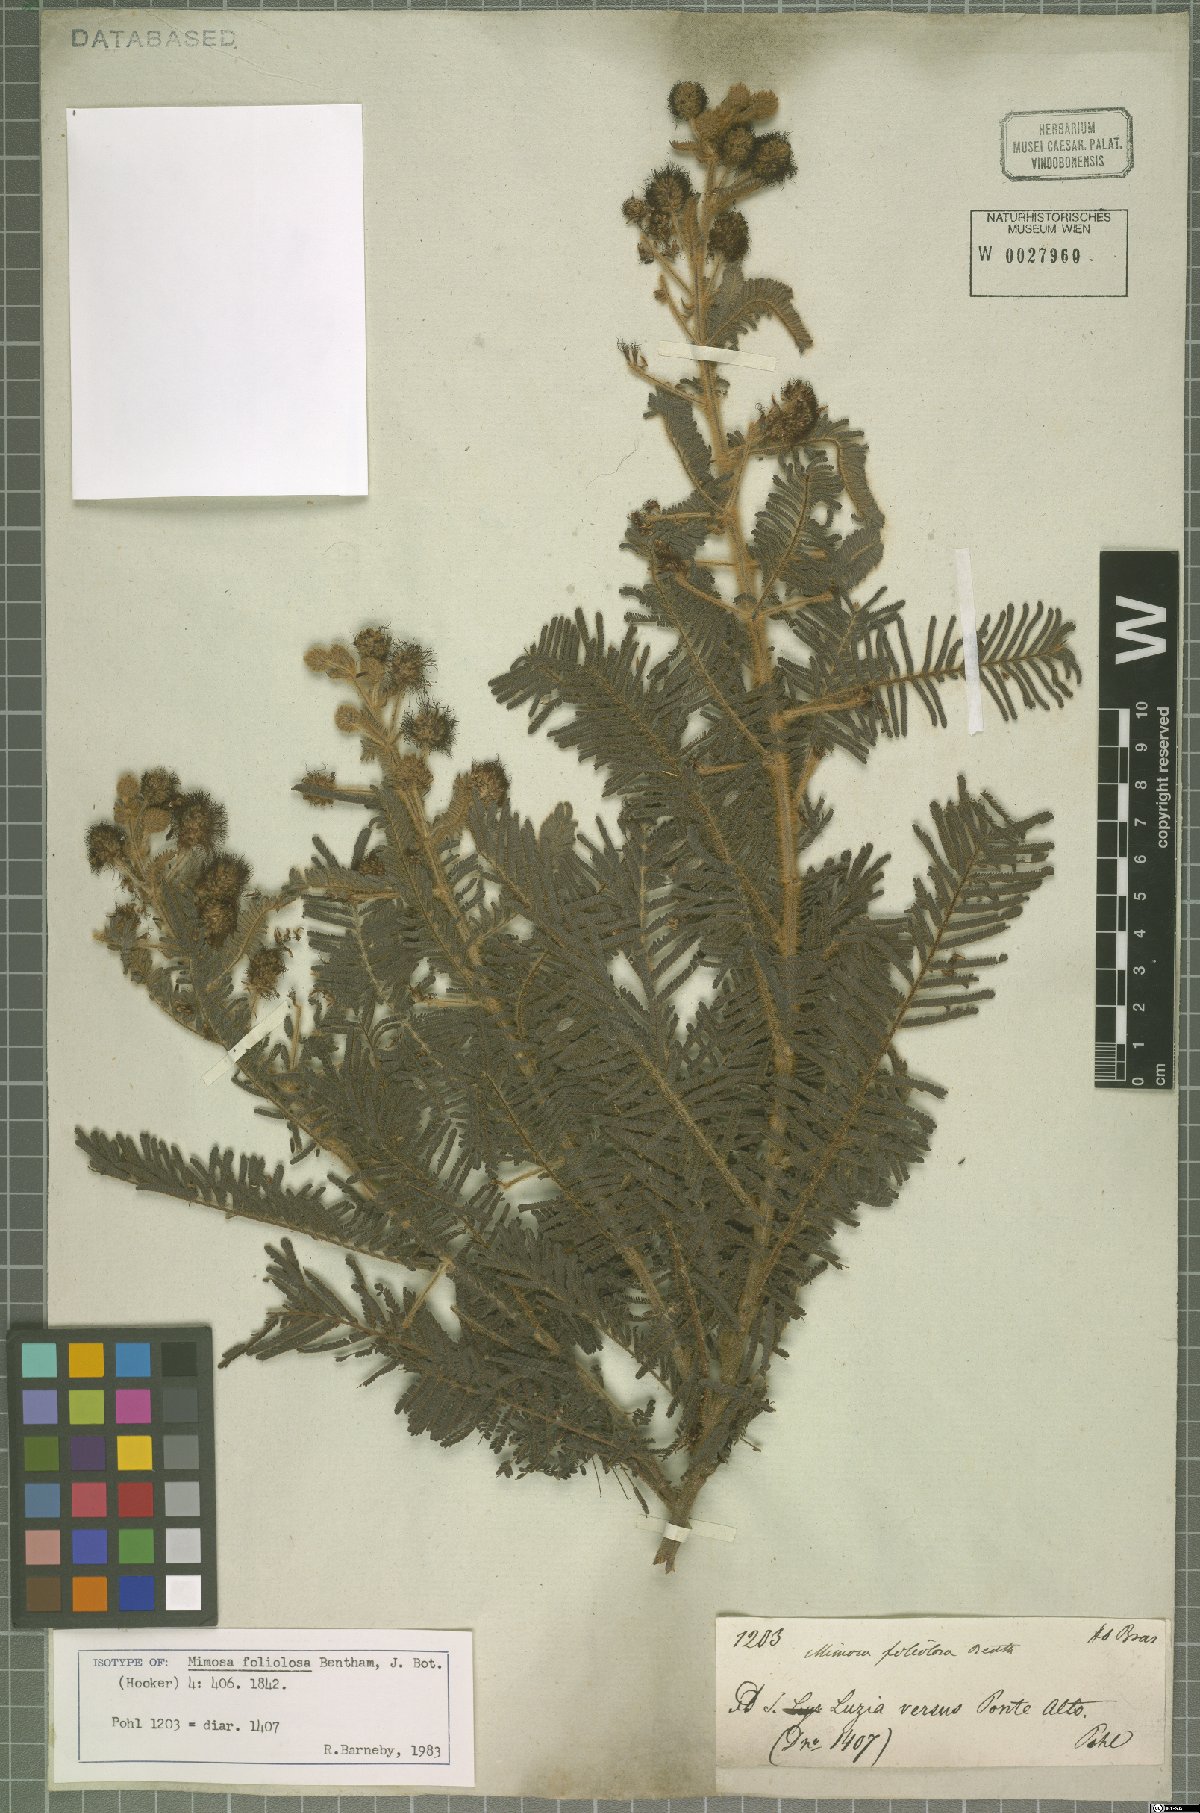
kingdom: Plantae
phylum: Tracheophyta
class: Magnoliopsida
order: Fabales
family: Fabaceae
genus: Mimosa
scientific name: Mimosa foliolosa
